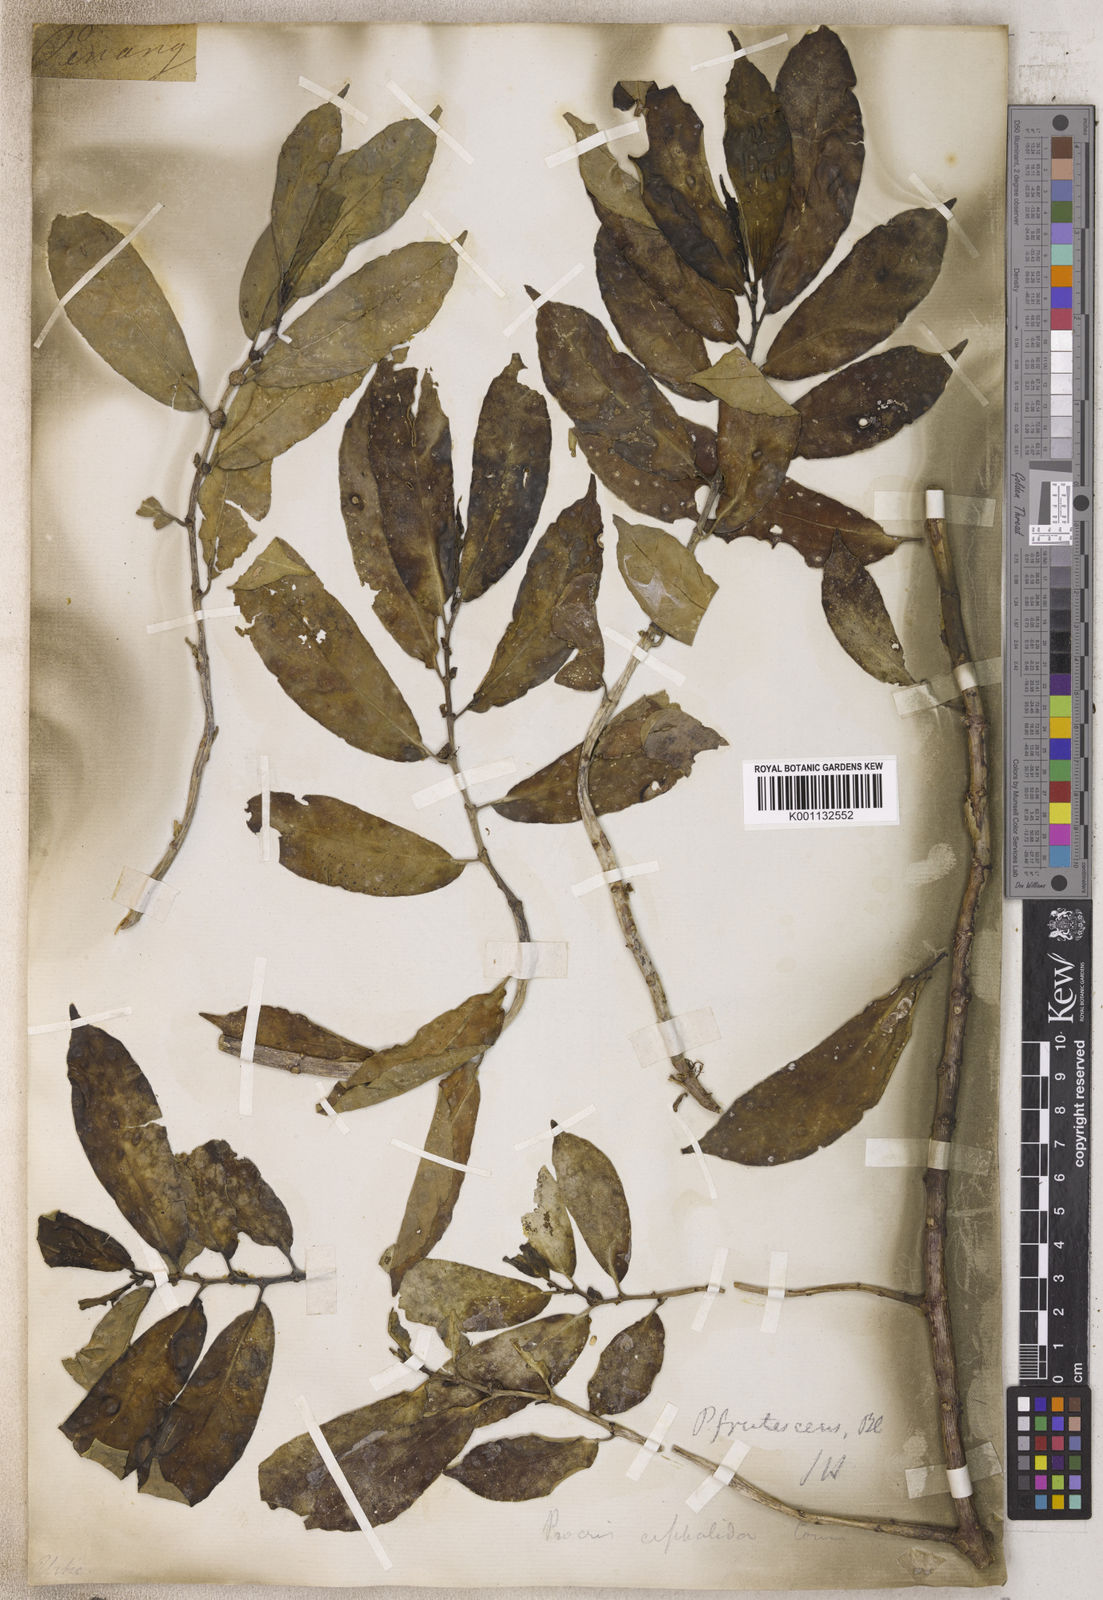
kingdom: Plantae
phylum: Tracheophyta
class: Magnoliopsida
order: Rosales
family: Urticaceae
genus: Procris
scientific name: Procris
